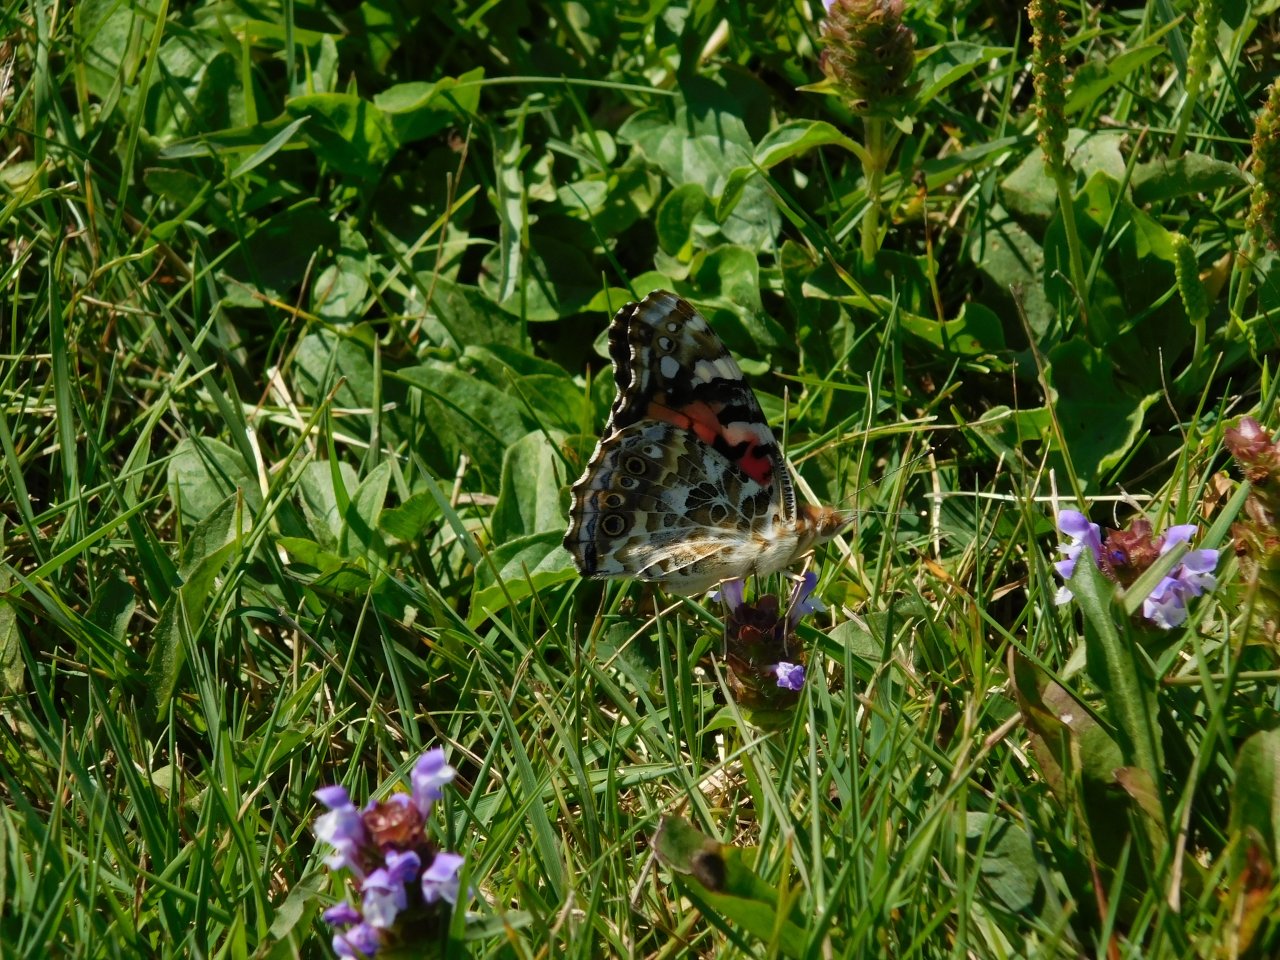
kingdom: Animalia
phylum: Arthropoda
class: Insecta
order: Lepidoptera
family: Nymphalidae
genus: Vanessa
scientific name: Vanessa cardui
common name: Painted Lady
